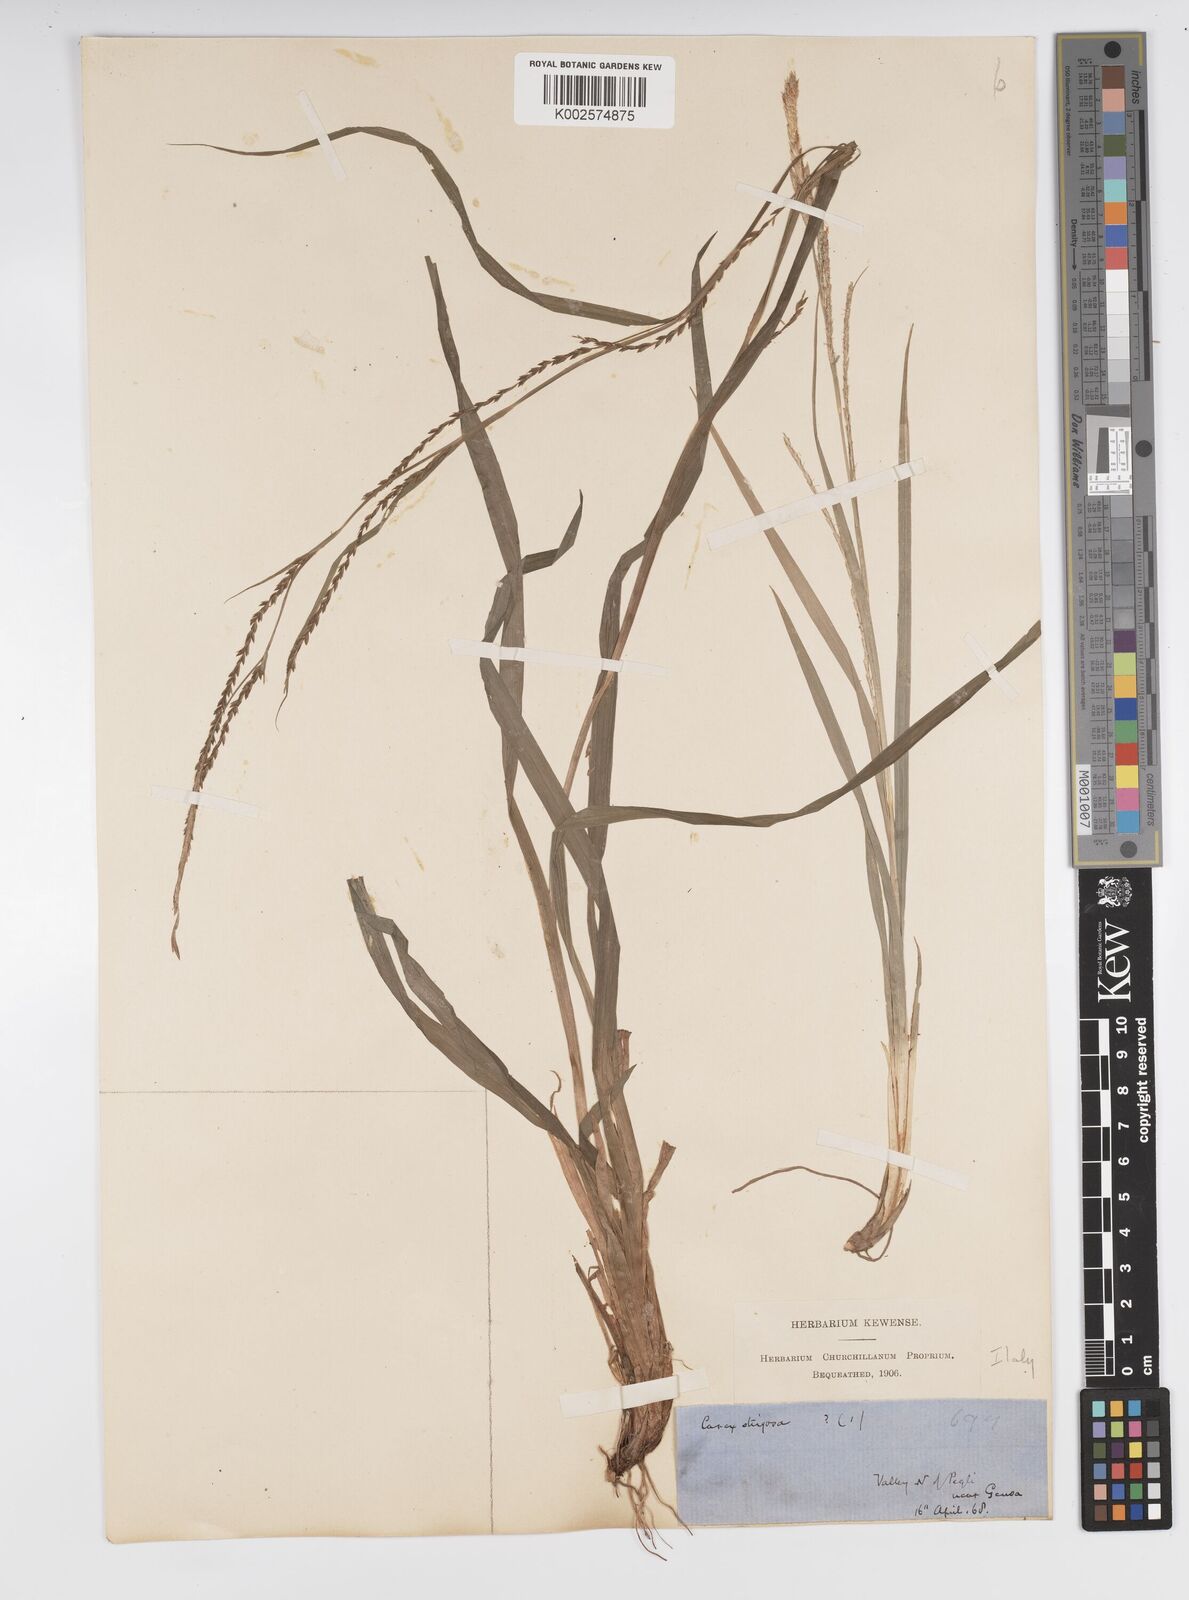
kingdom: Plantae
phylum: Tracheophyta
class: Liliopsida
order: Poales
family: Cyperaceae
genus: Carex
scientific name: Carex strigosa
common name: Thin-spiked wood-sedge
